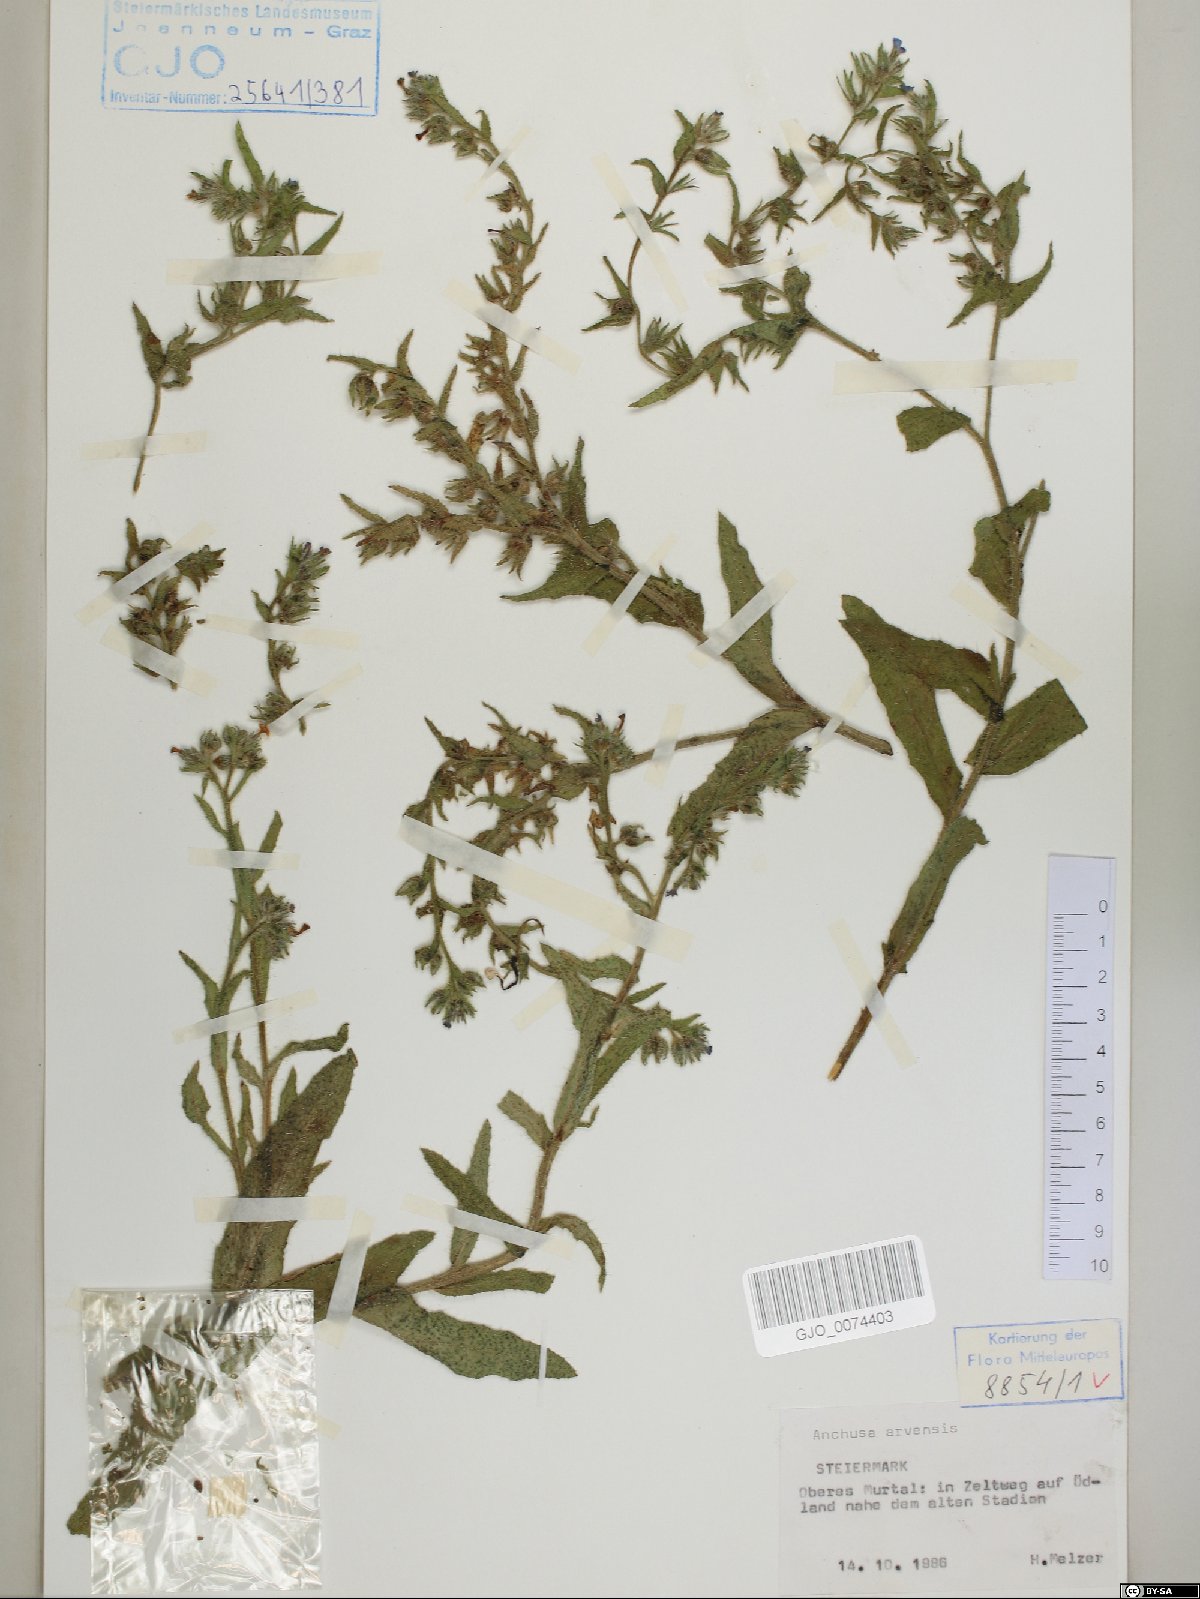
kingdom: Plantae
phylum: Tracheophyta
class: Magnoliopsida
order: Boraginales
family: Boraginaceae
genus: Lycopsis
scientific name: Lycopsis arvensis
